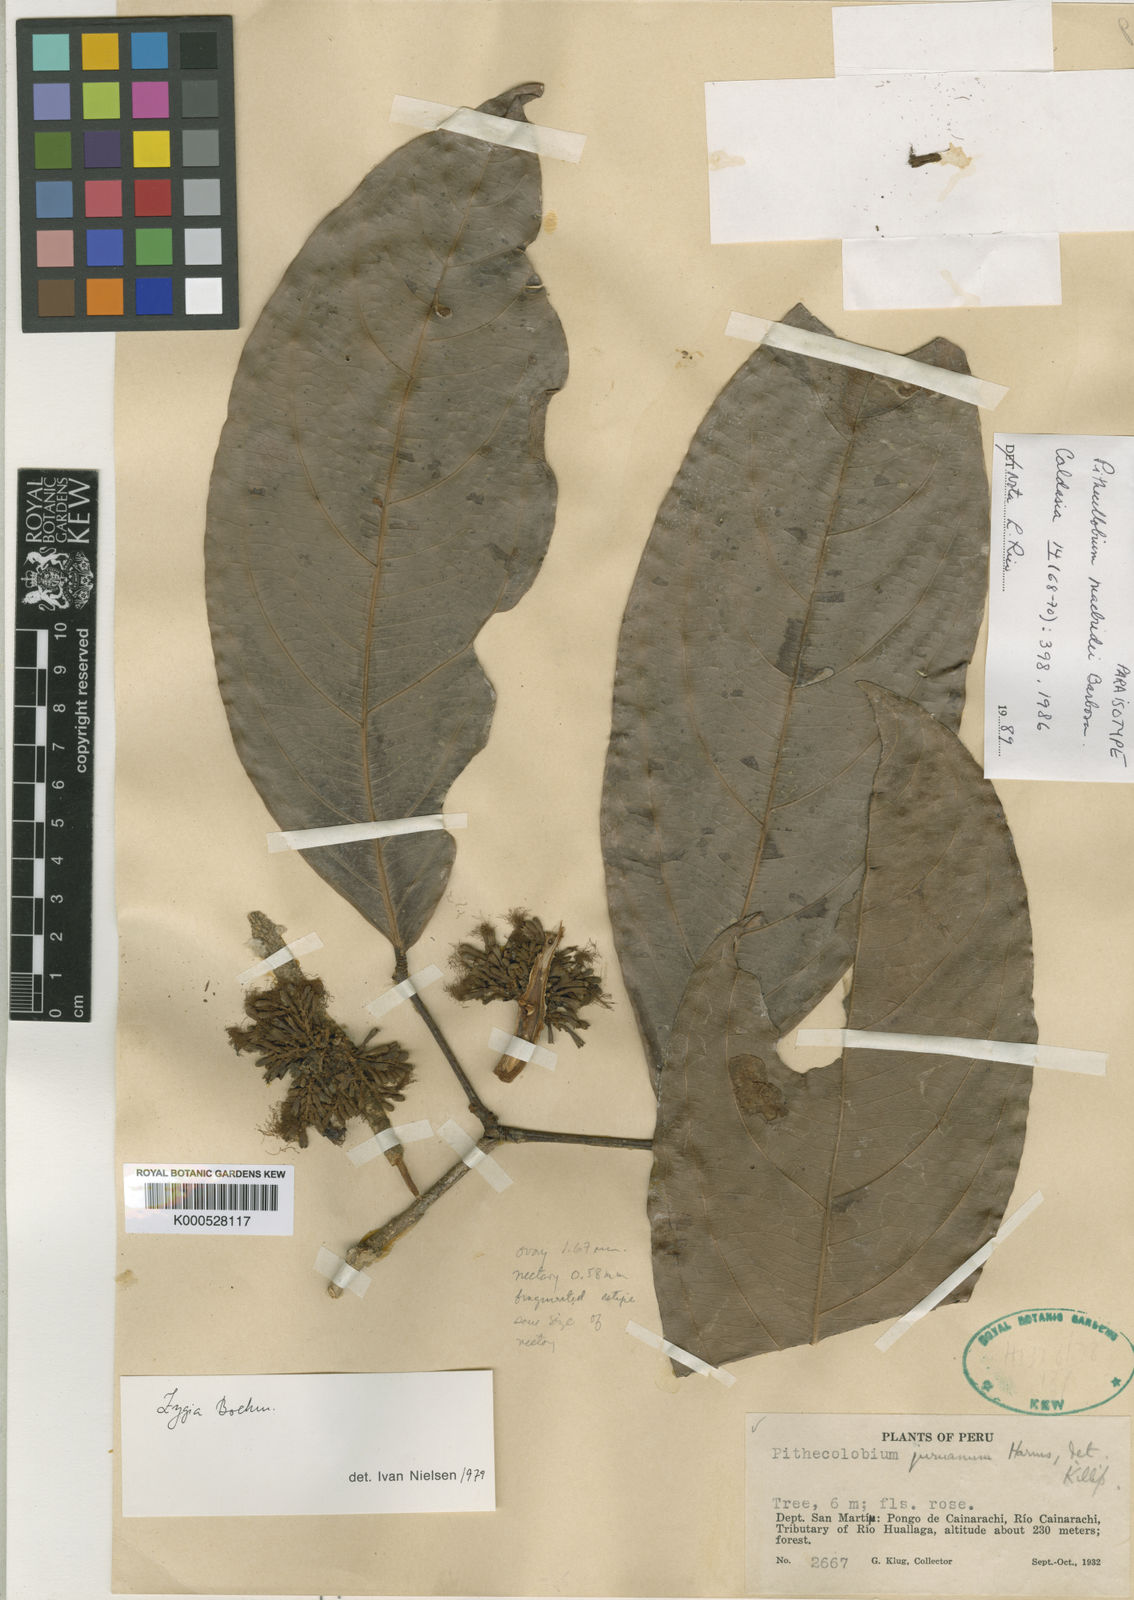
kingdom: Plantae
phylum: Tracheophyta
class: Magnoliopsida
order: Fabales
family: Fabaceae
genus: Zygia
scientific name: Zygia macbridei
